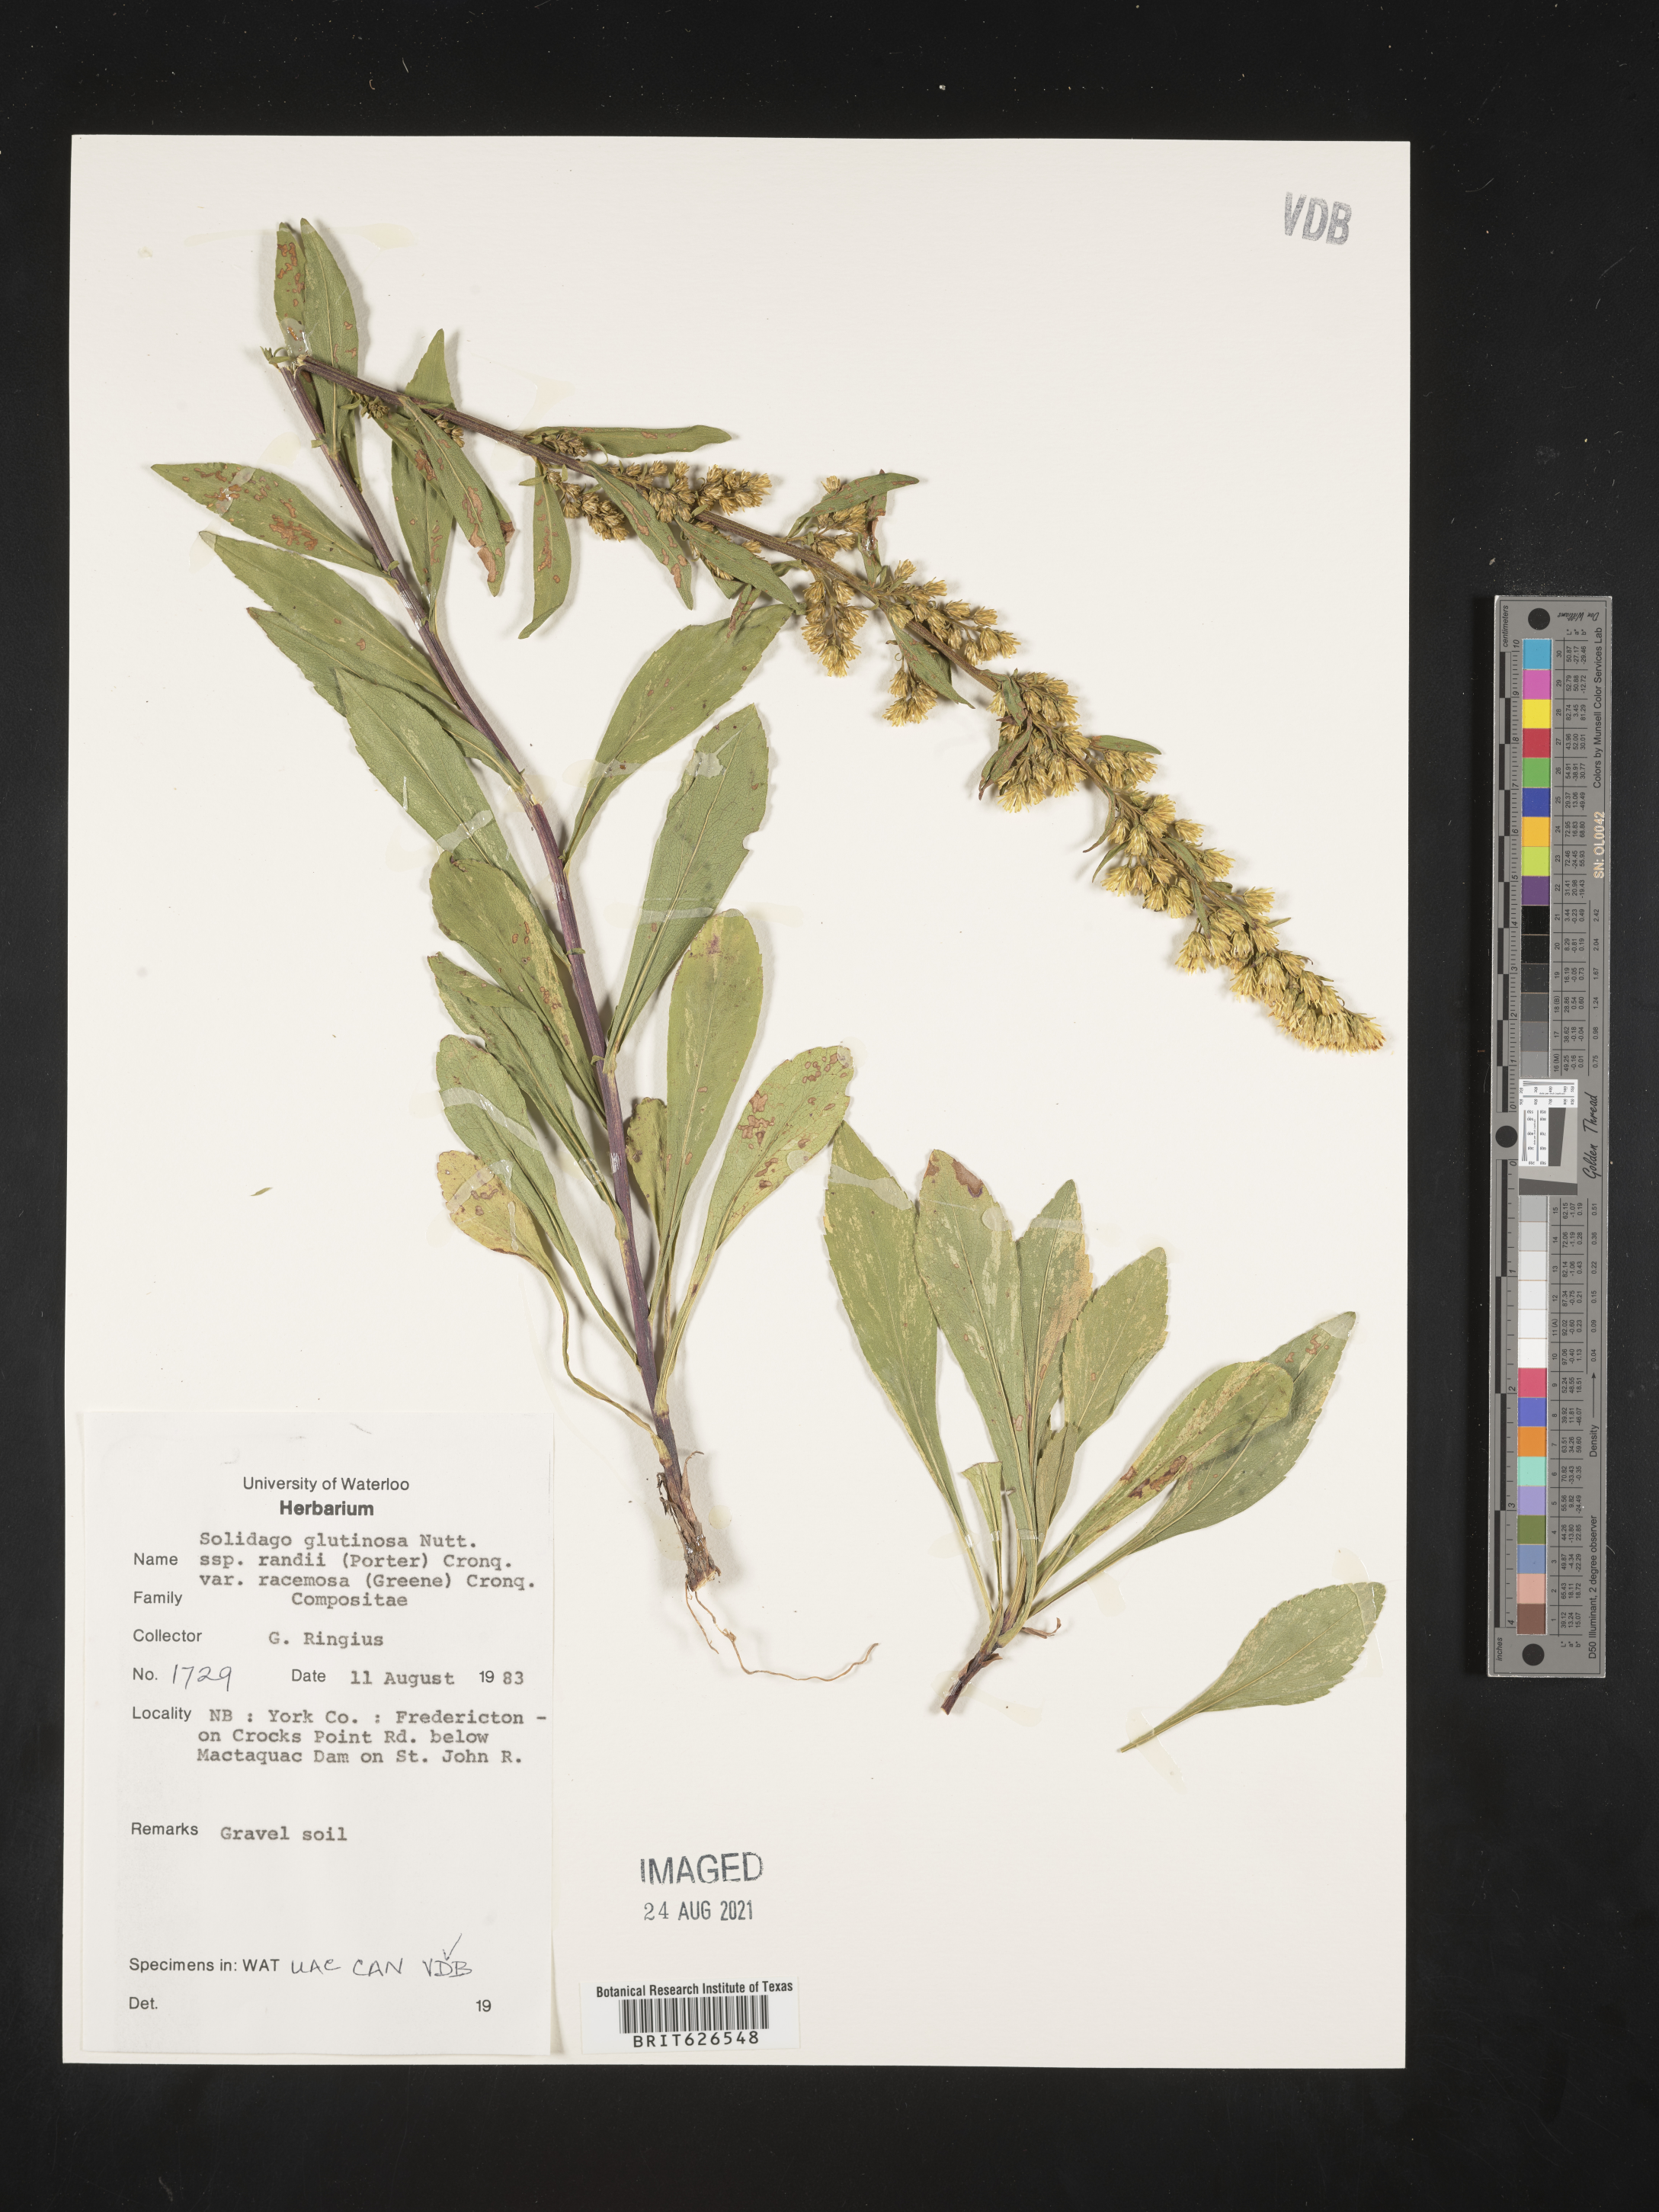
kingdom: Plantae
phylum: Tracheophyta
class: Magnoliopsida
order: Asterales
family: Asteraceae
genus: Solidago
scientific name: Solidago randii
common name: Rand's goldenrod
